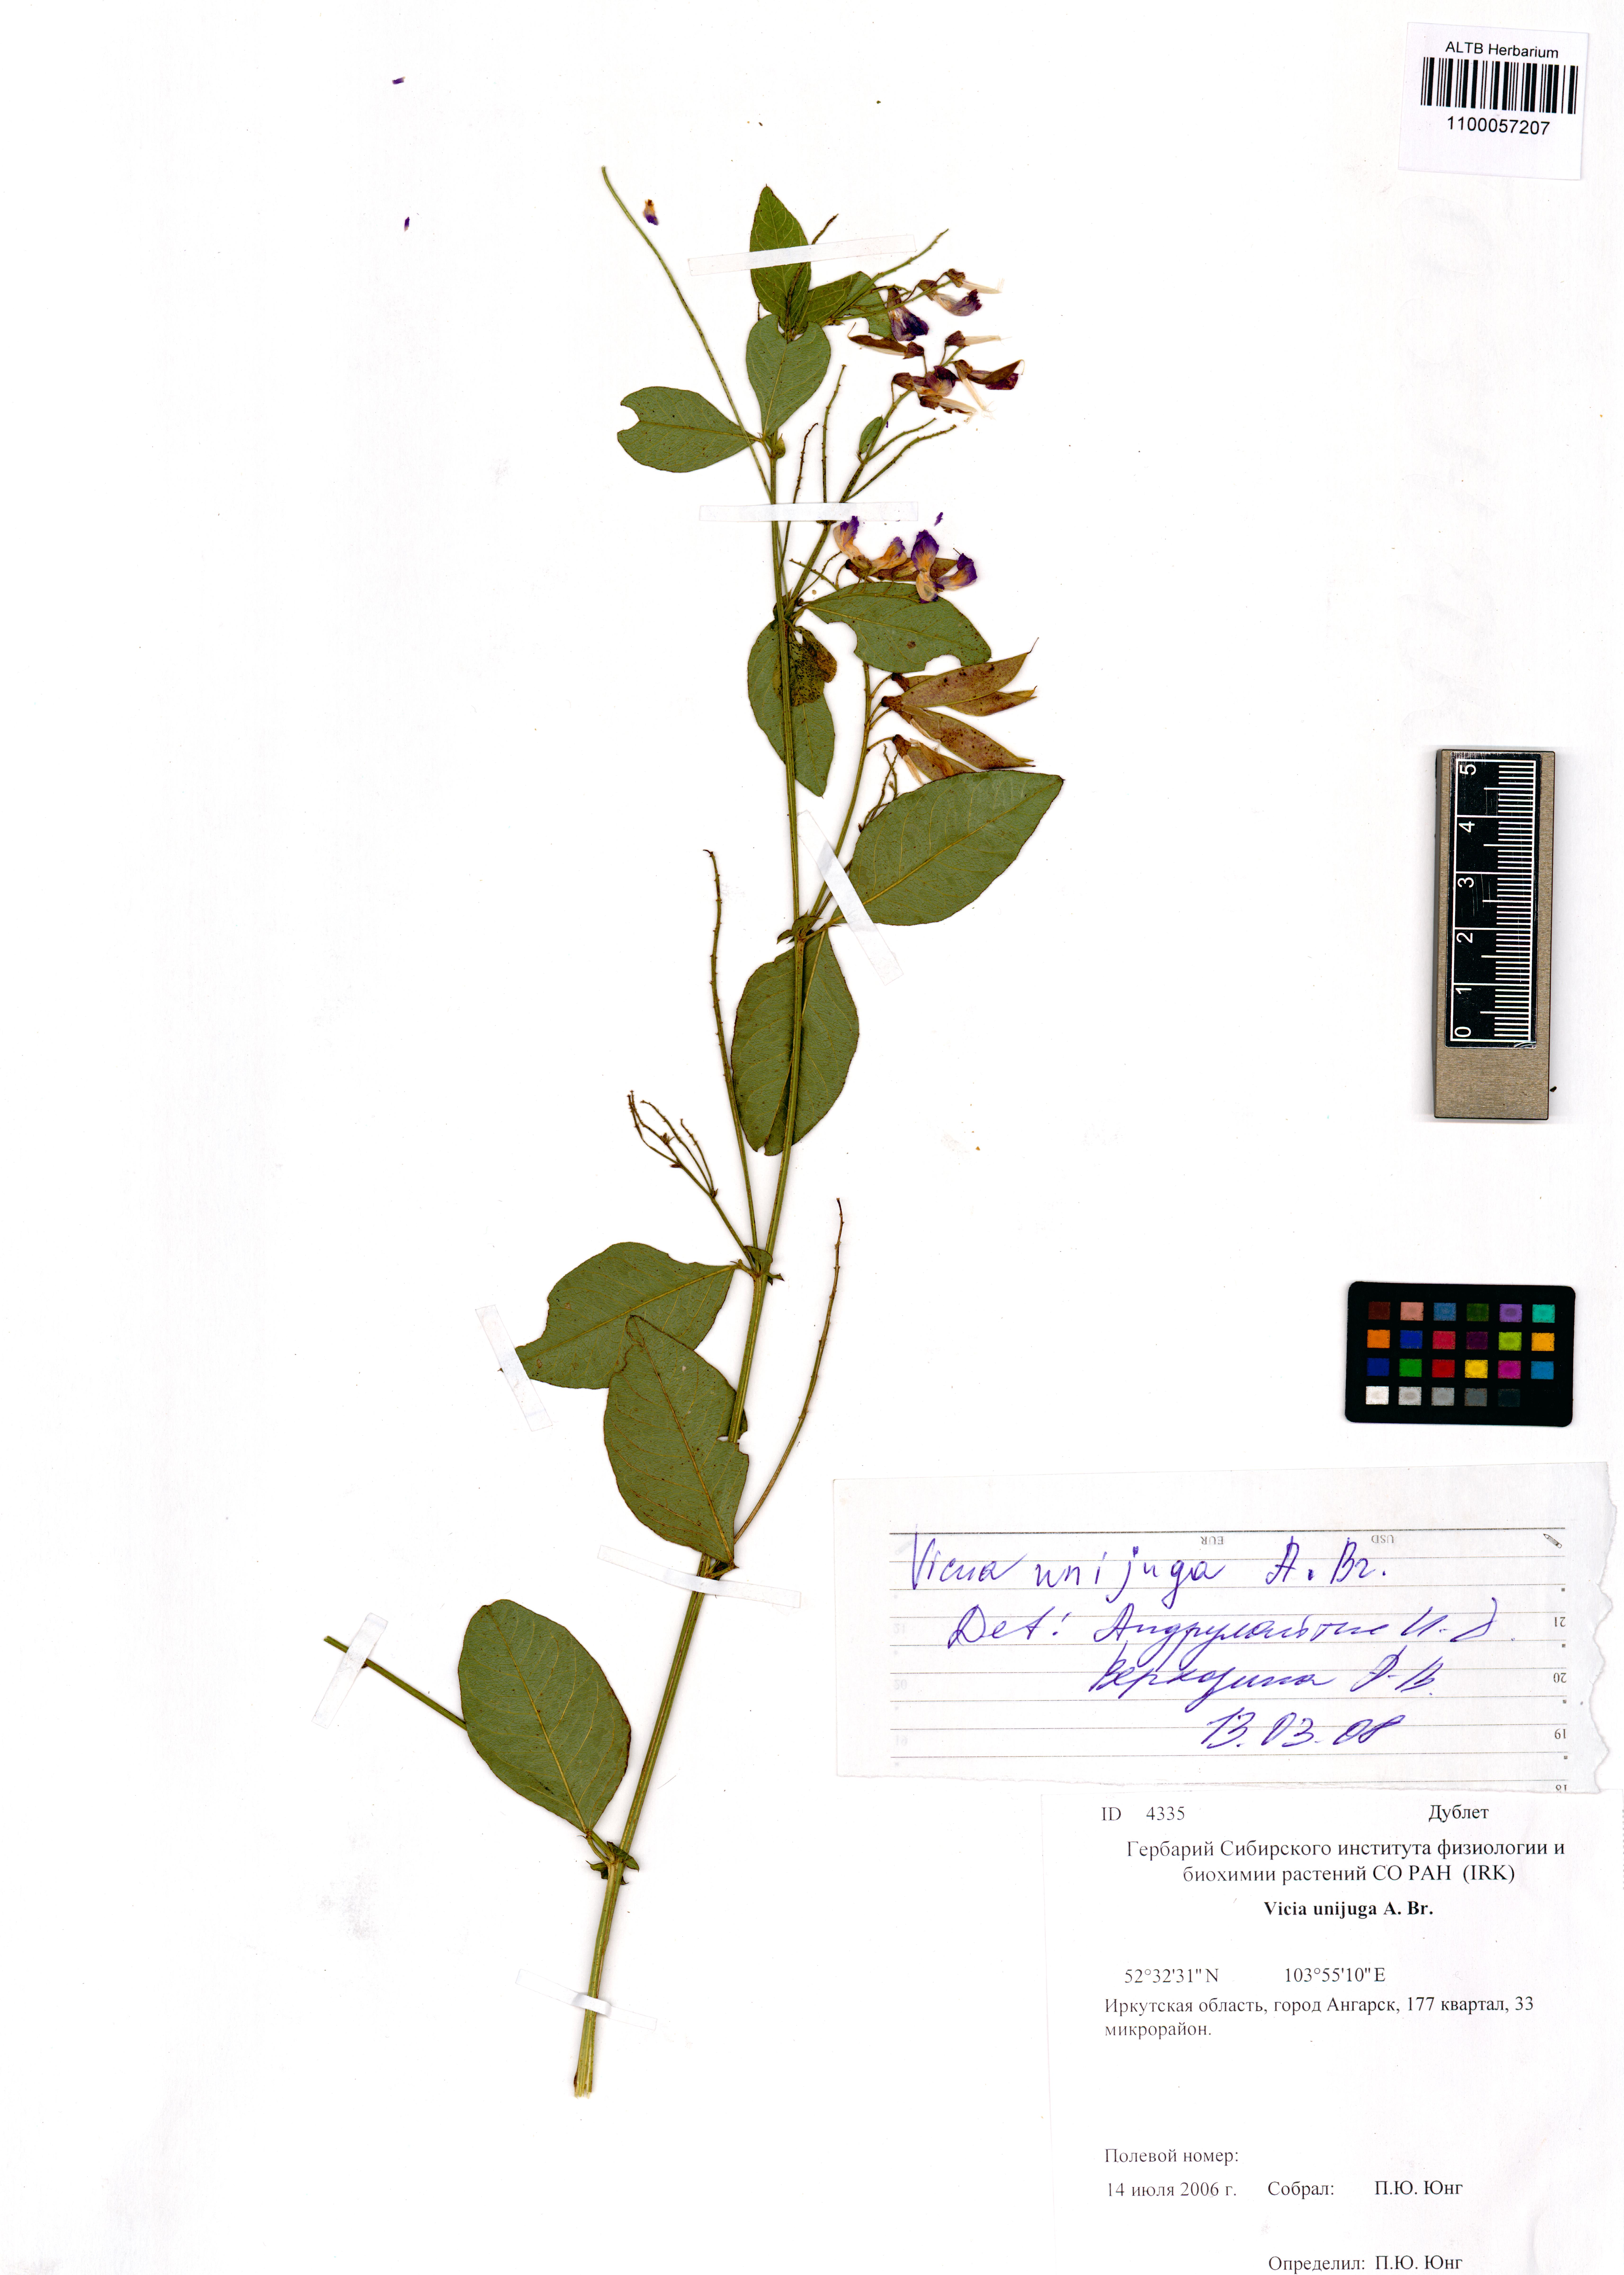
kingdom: Plantae
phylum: Tracheophyta
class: Magnoliopsida
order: Fabales
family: Fabaceae
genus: Vicia
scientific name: Vicia unijuga
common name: Two-leaf vetch
